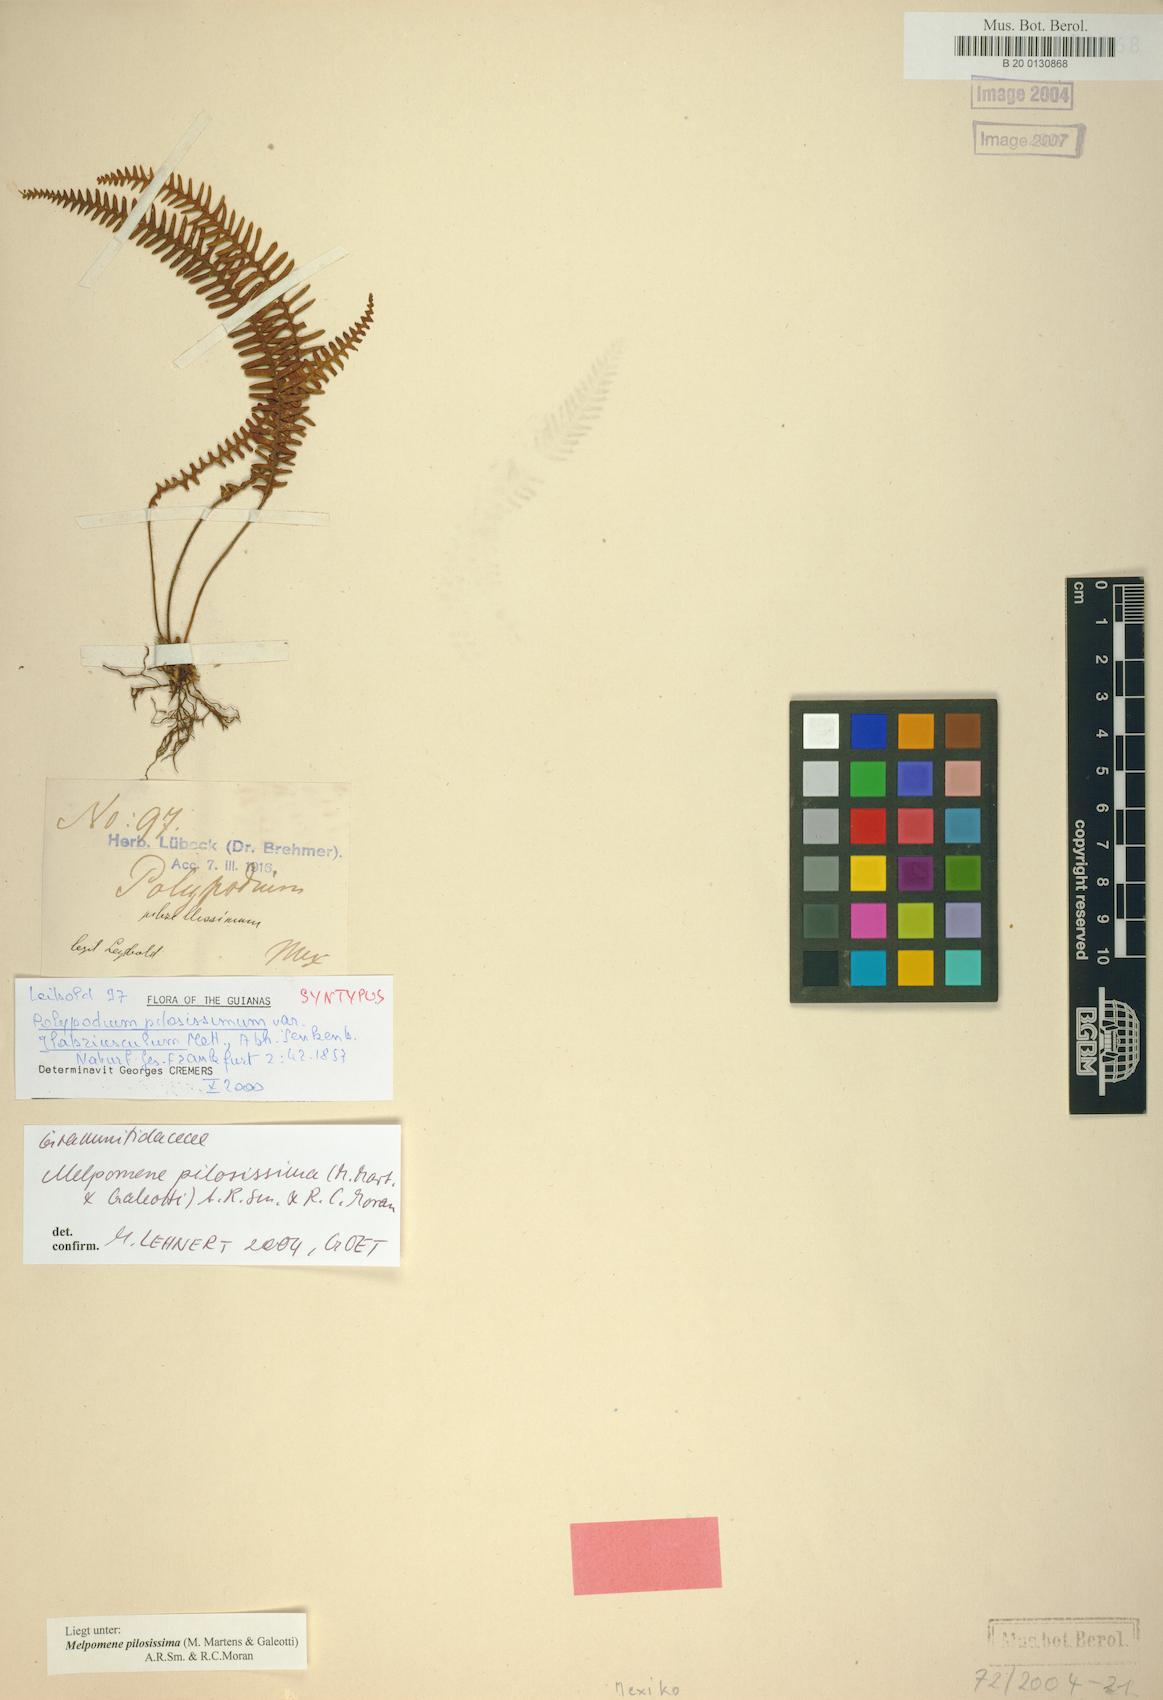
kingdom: Plantae
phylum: Tracheophyta
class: Polypodiopsida
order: Polypodiales
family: Polypodiaceae
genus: Melpomene
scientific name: Melpomene pilosissima
